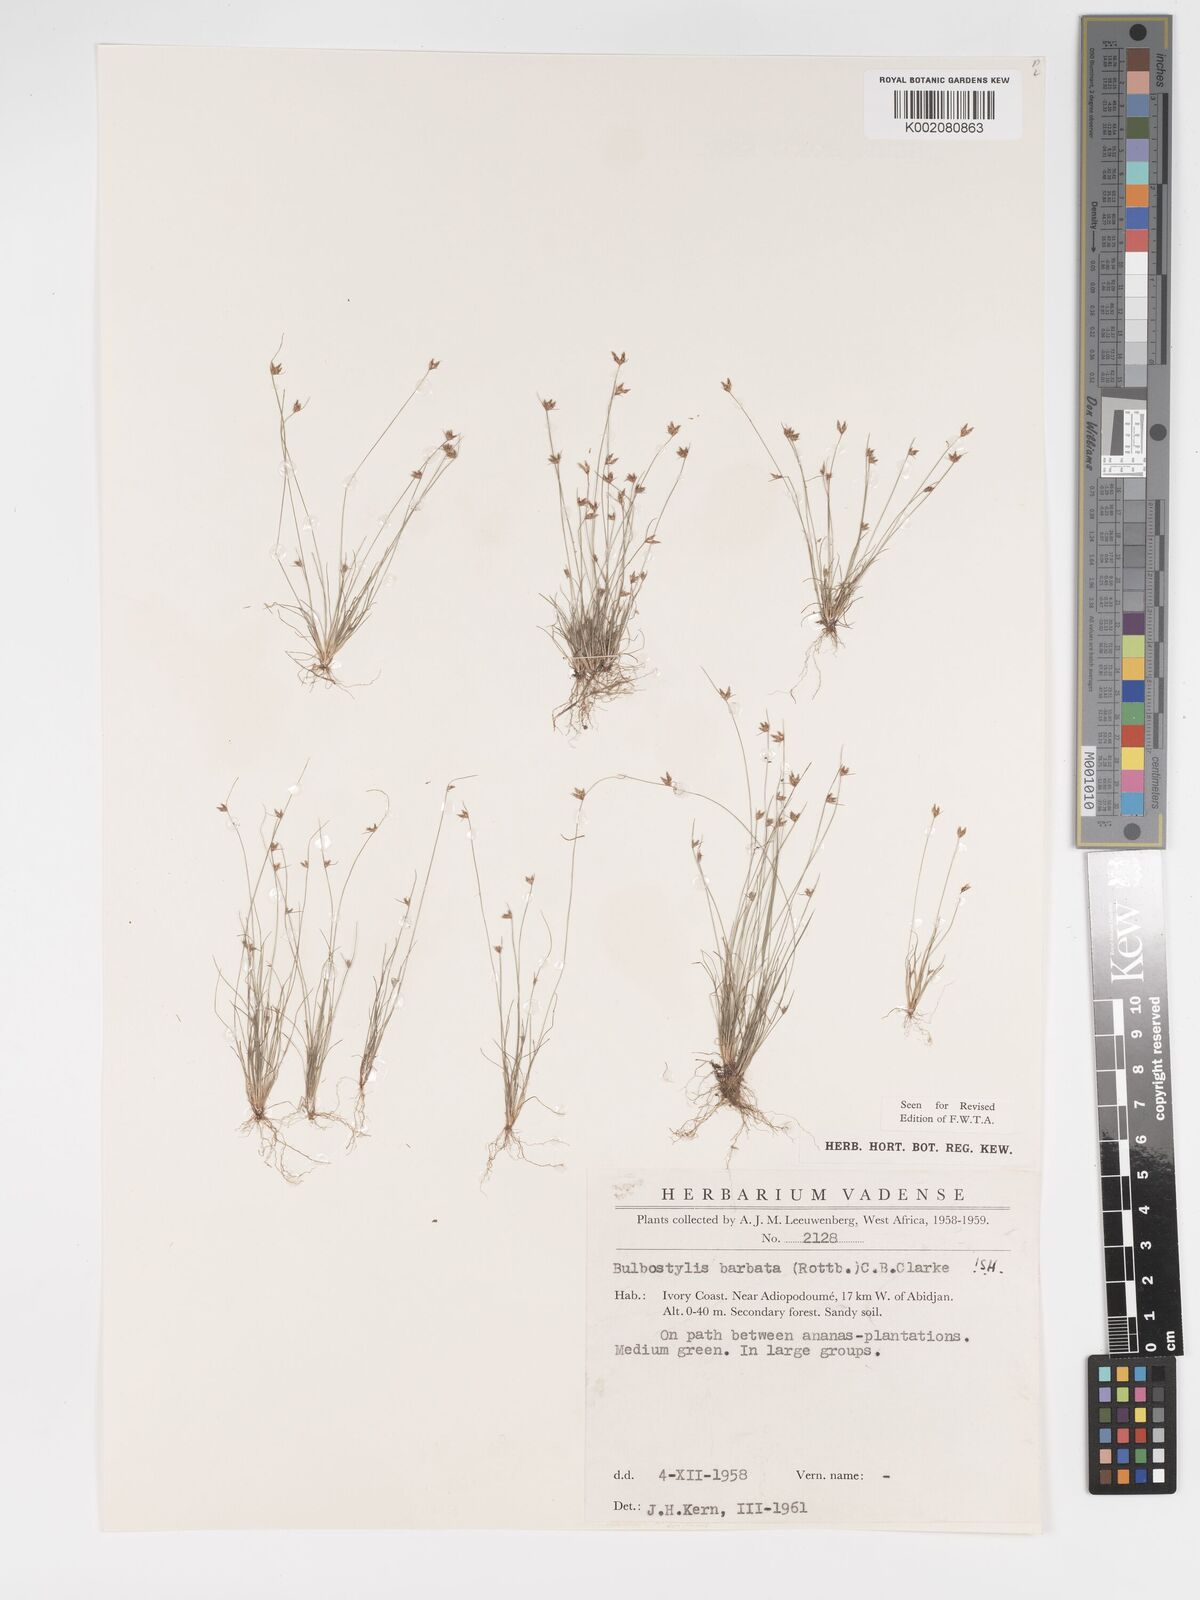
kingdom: Plantae
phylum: Tracheophyta
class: Liliopsida
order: Poales
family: Cyperaceae
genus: Bulbostylis
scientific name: Bulbostylis barbata
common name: Watergrass
